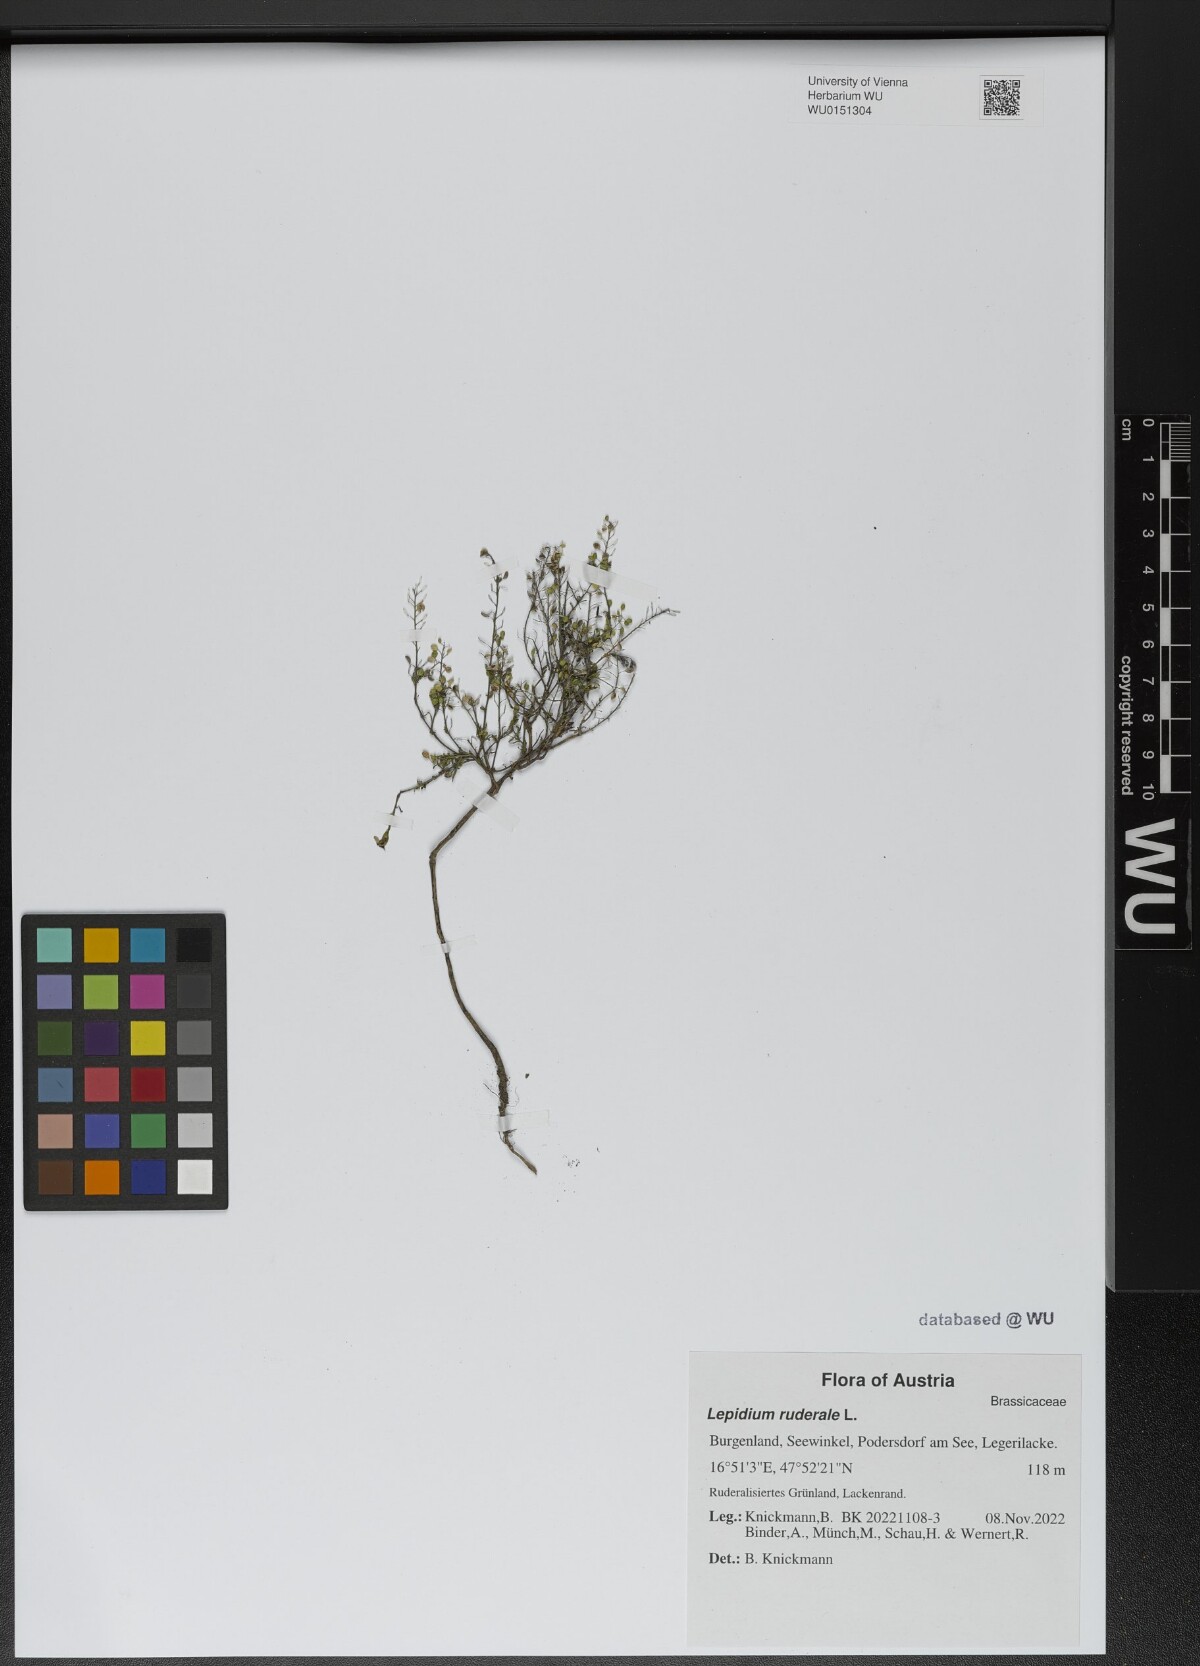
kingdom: Plantae
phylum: Tracheophyta
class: Magnoliopsida
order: Brassicales
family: Brassicaceae
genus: Lepidium
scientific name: Lepidium ruderale
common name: Narrow-leaved pepperwort
